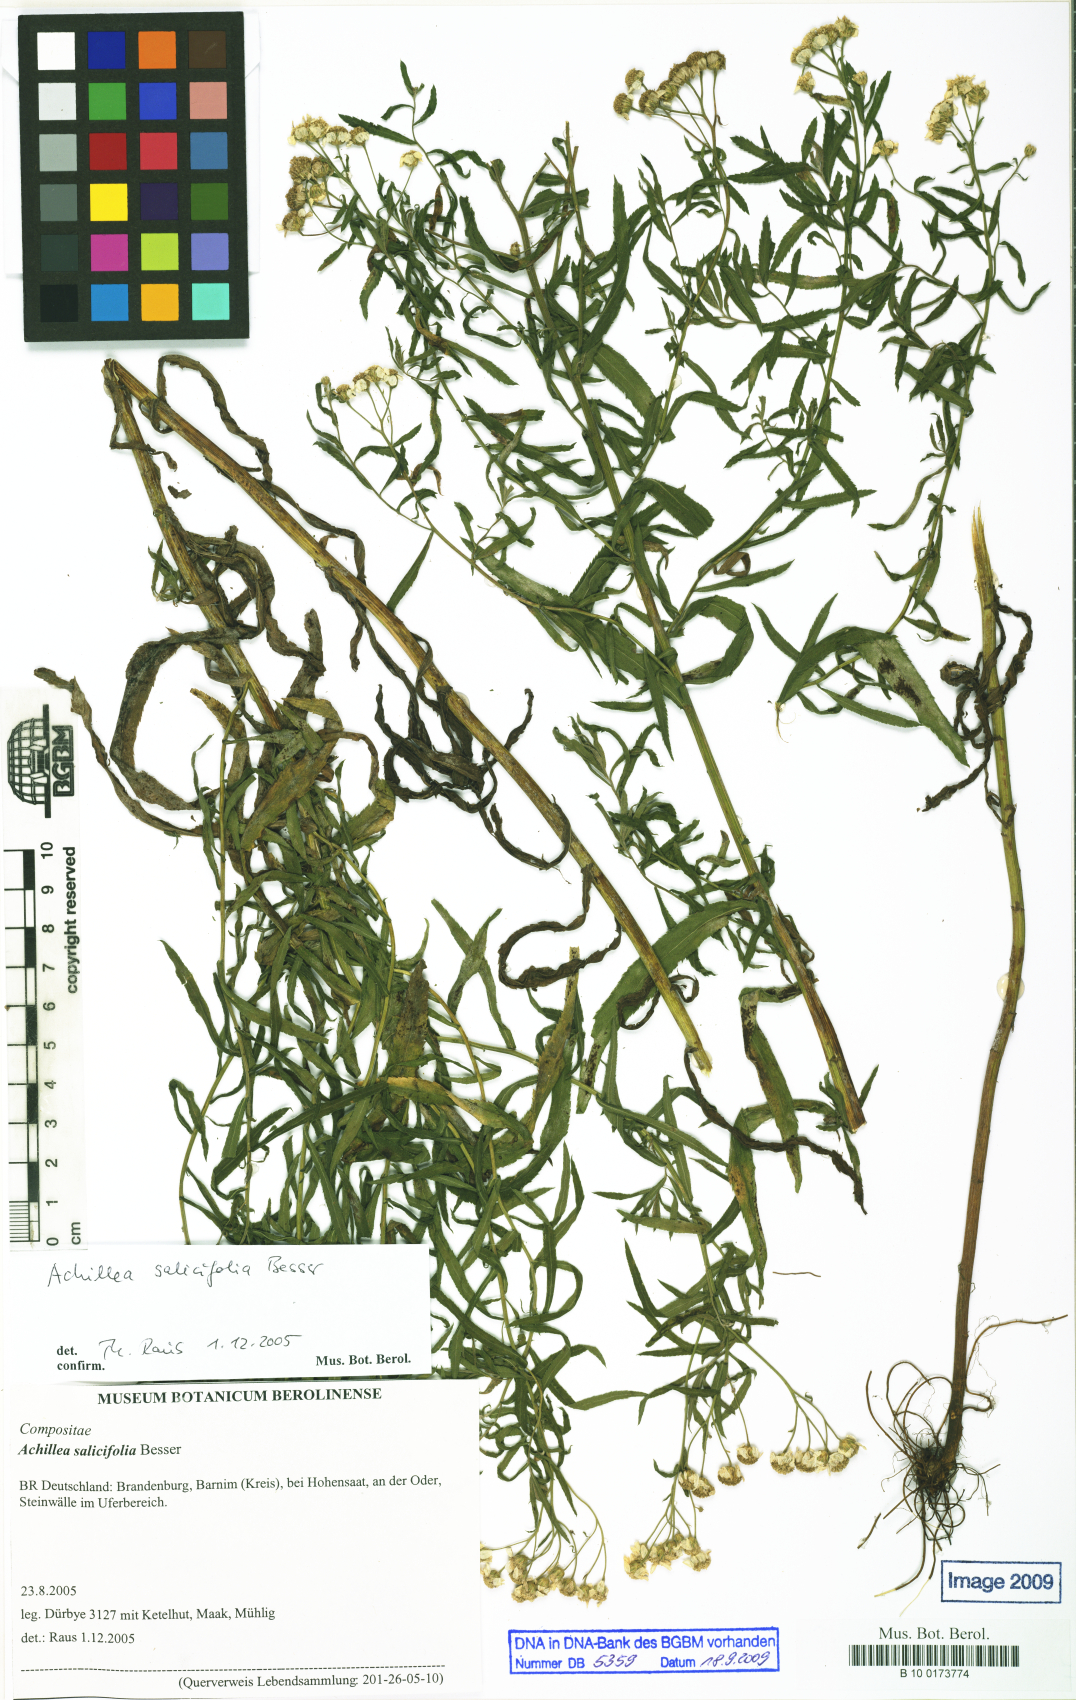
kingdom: Plantae
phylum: Tracheophyta
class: Magnoliopsida
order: Asterales
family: Asteraceae
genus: Achillea
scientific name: Achillea salicifolia
